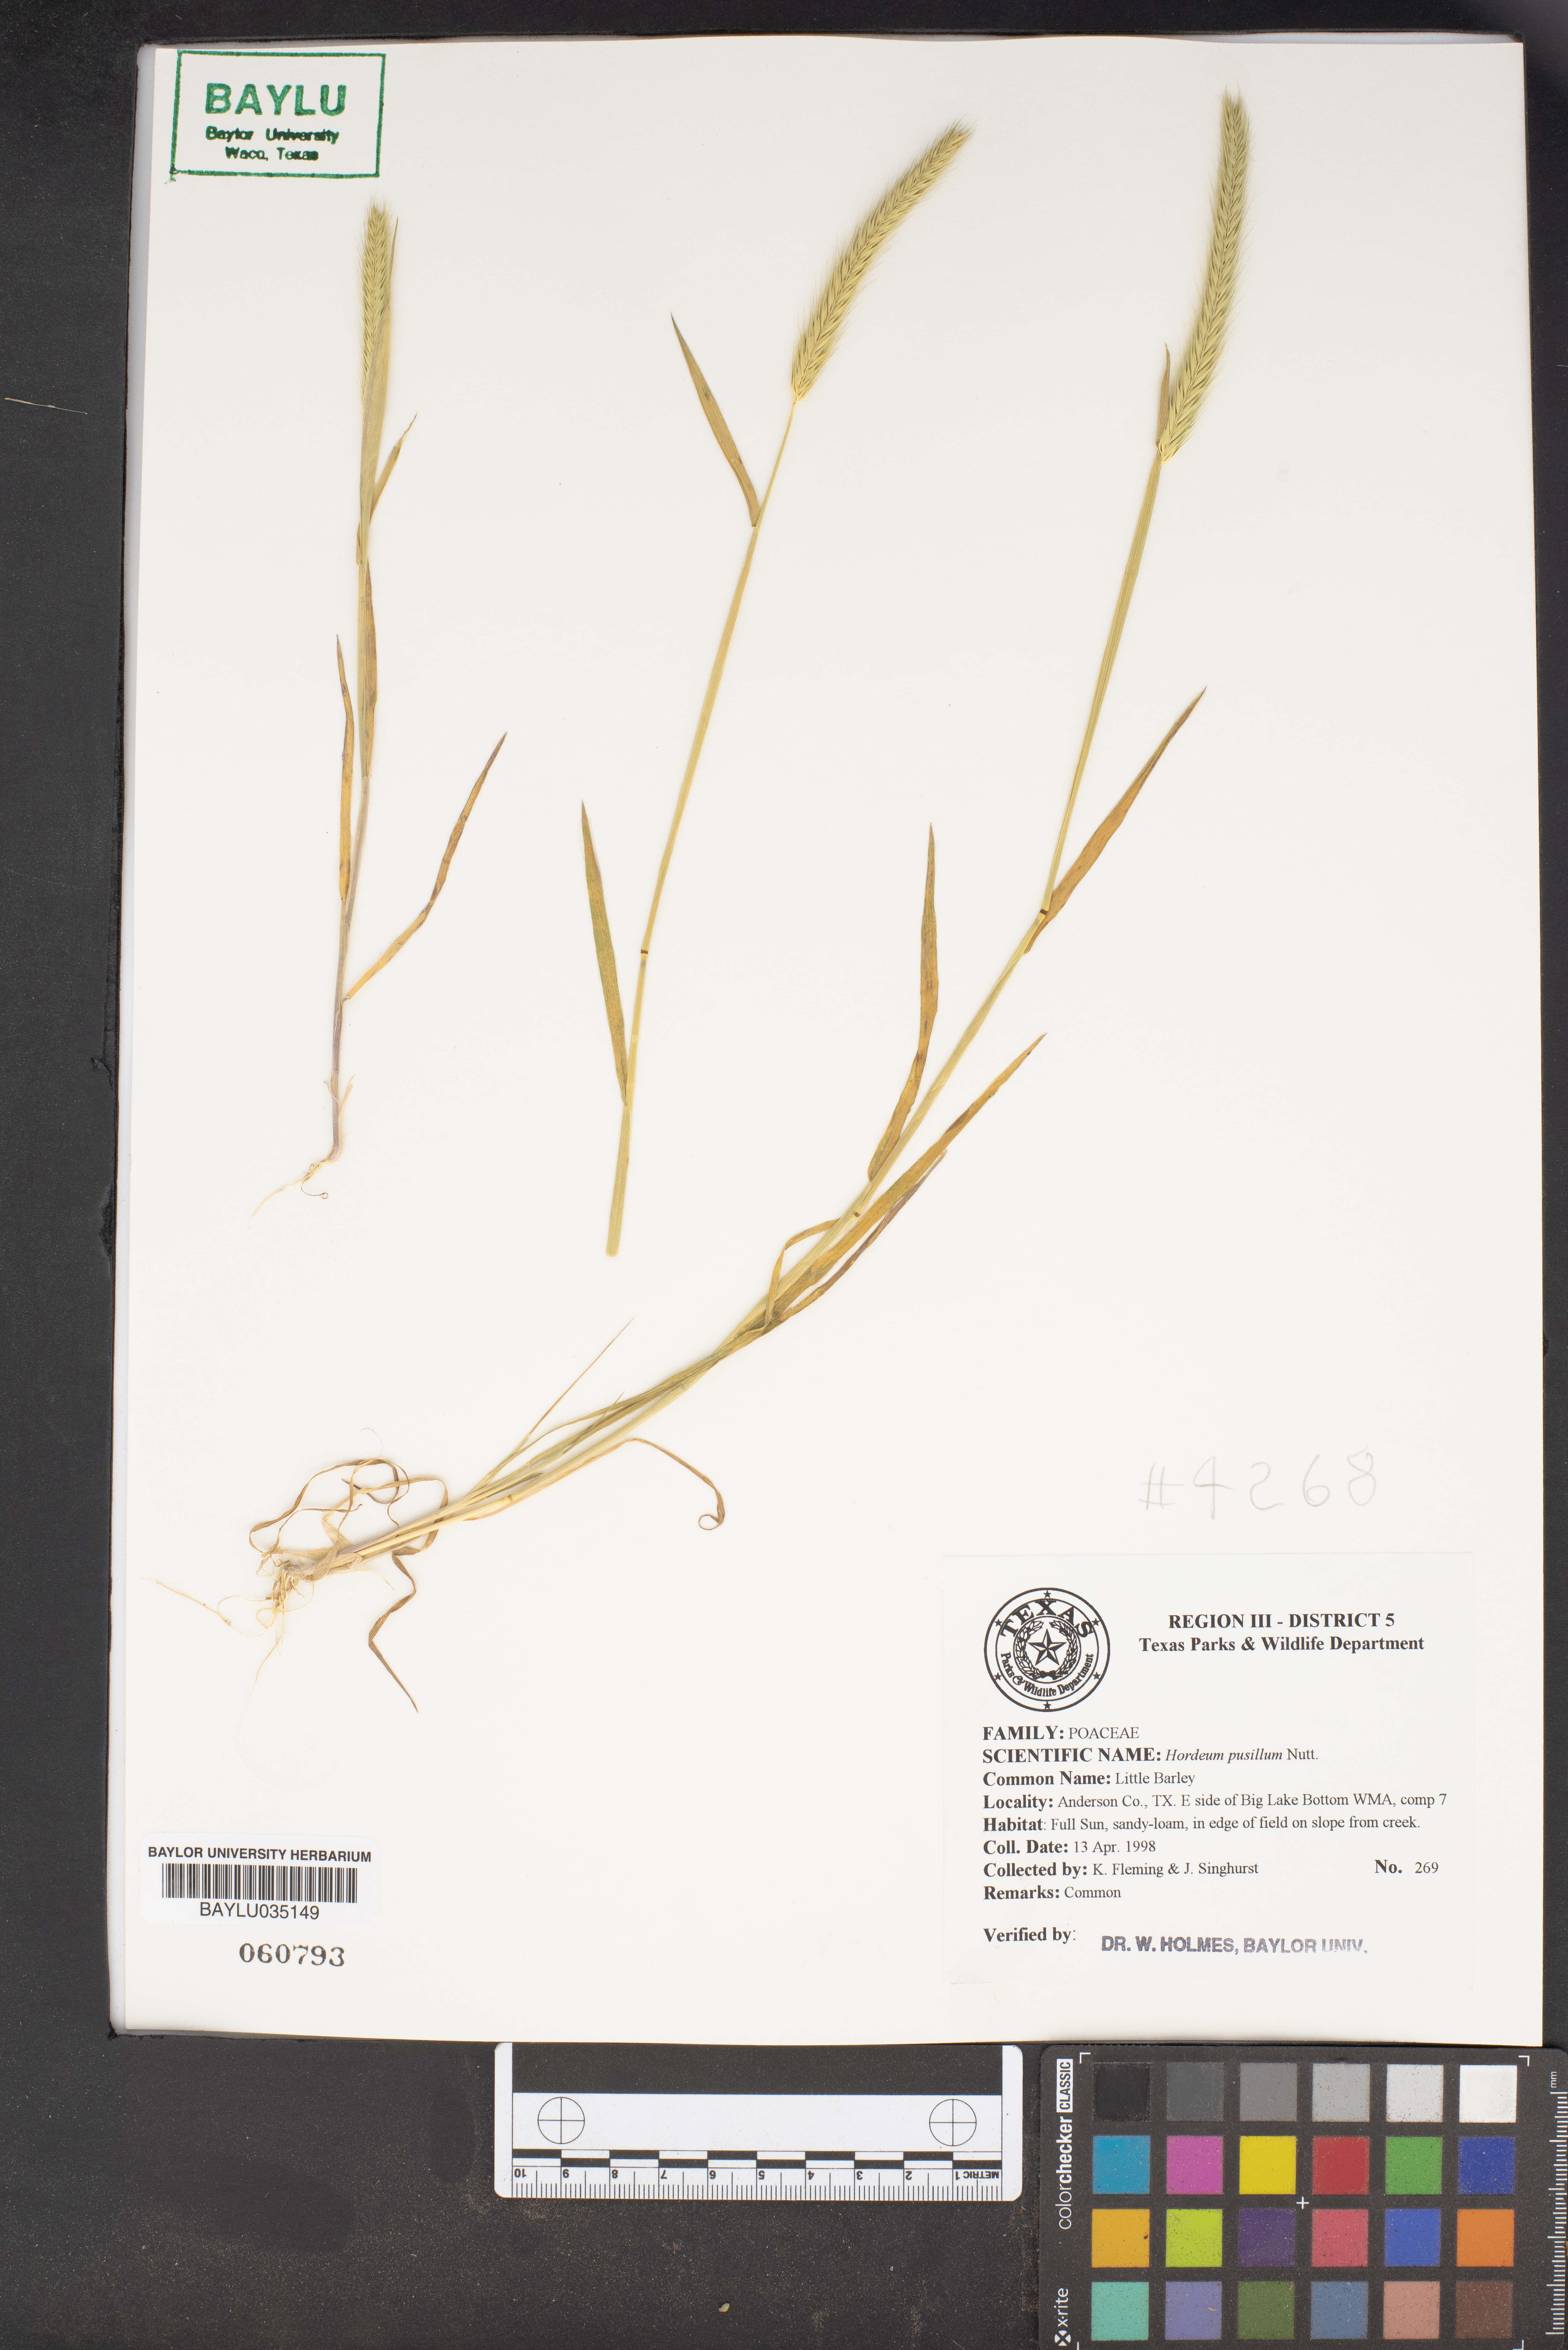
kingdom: Plantae
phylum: Tracheophyta
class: Liliopsida
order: Poales
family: Poaceae
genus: Hordeum
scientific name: Hordeum pusillum
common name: Little barley
